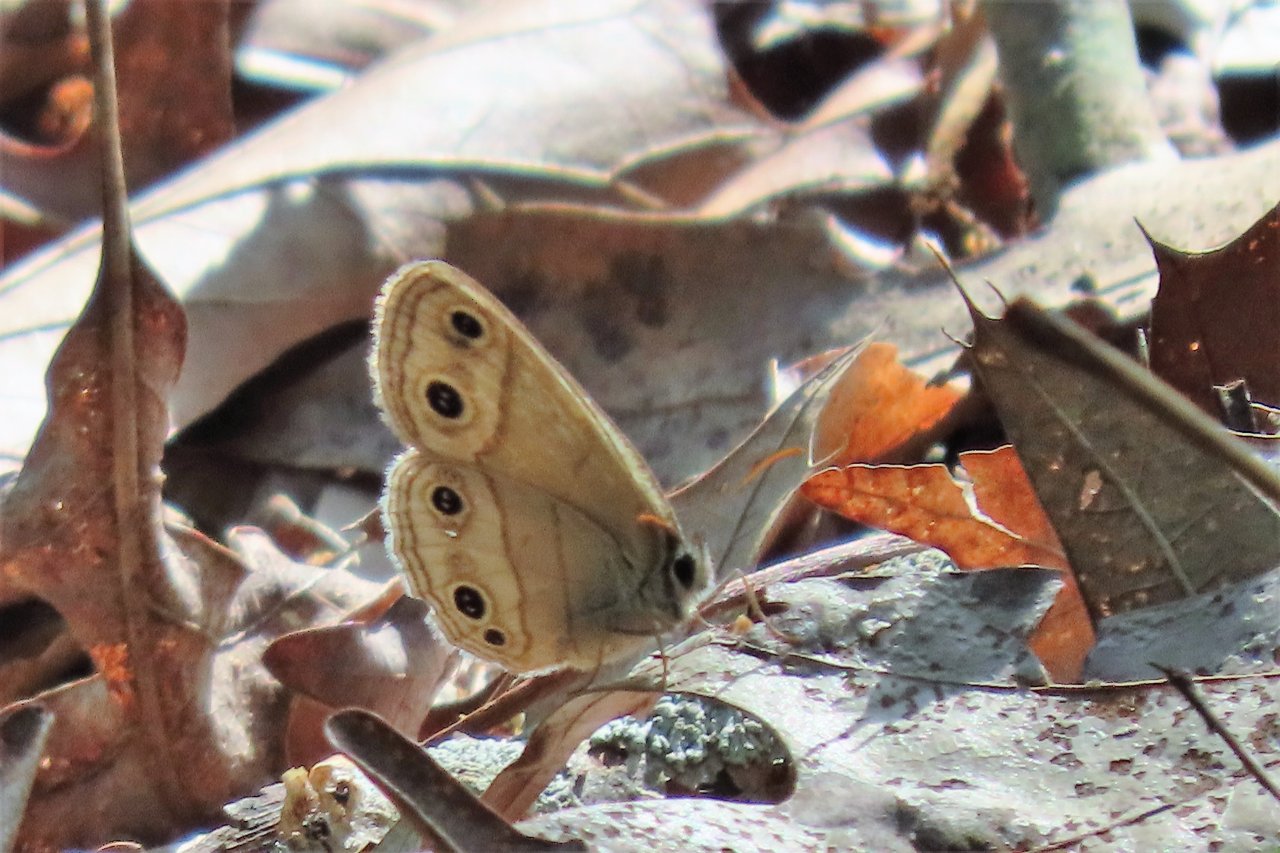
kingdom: Animalia
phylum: Arthropoda
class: Insecta
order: Lepidoptera
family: Nymphalidae
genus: Euptychia
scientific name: Euptychia cymela
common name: Little Wood Satyr
